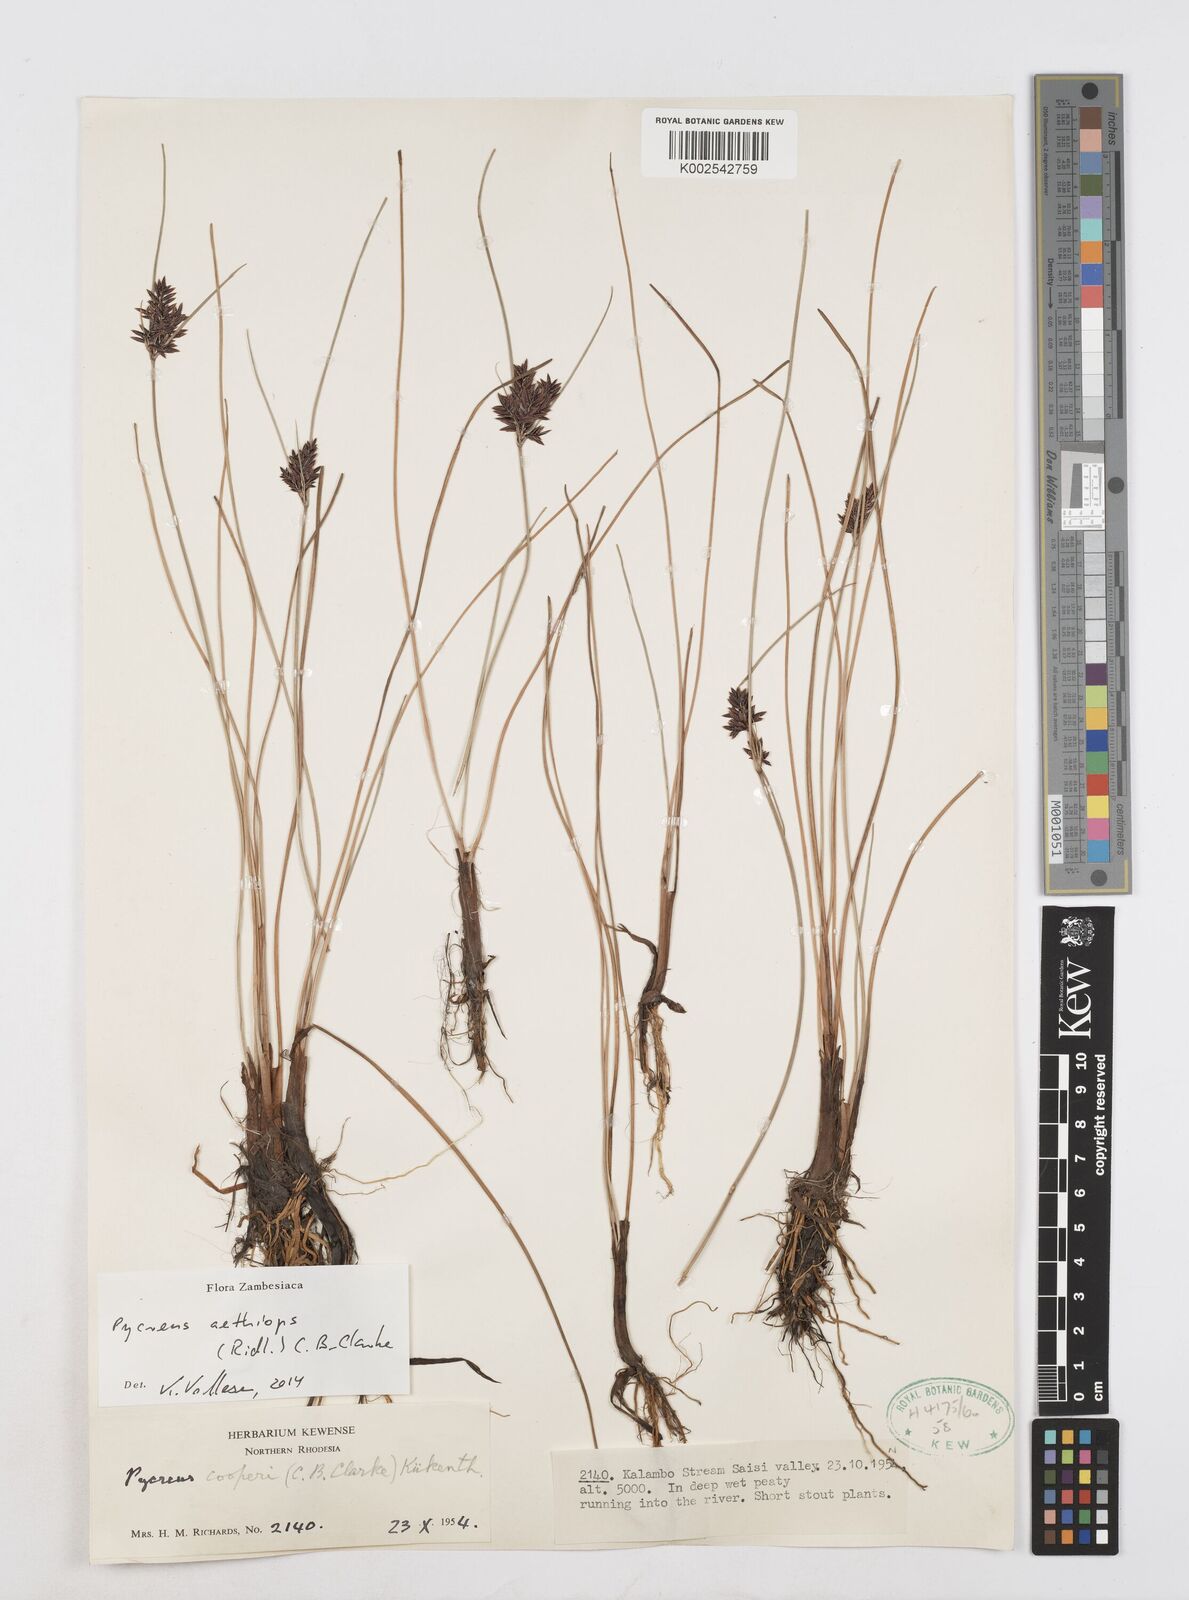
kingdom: Plantae
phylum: Tracheophyta
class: Liliopsida
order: Poales
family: Cyperaceae
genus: Cyperus
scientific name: Cyperus aethiops
